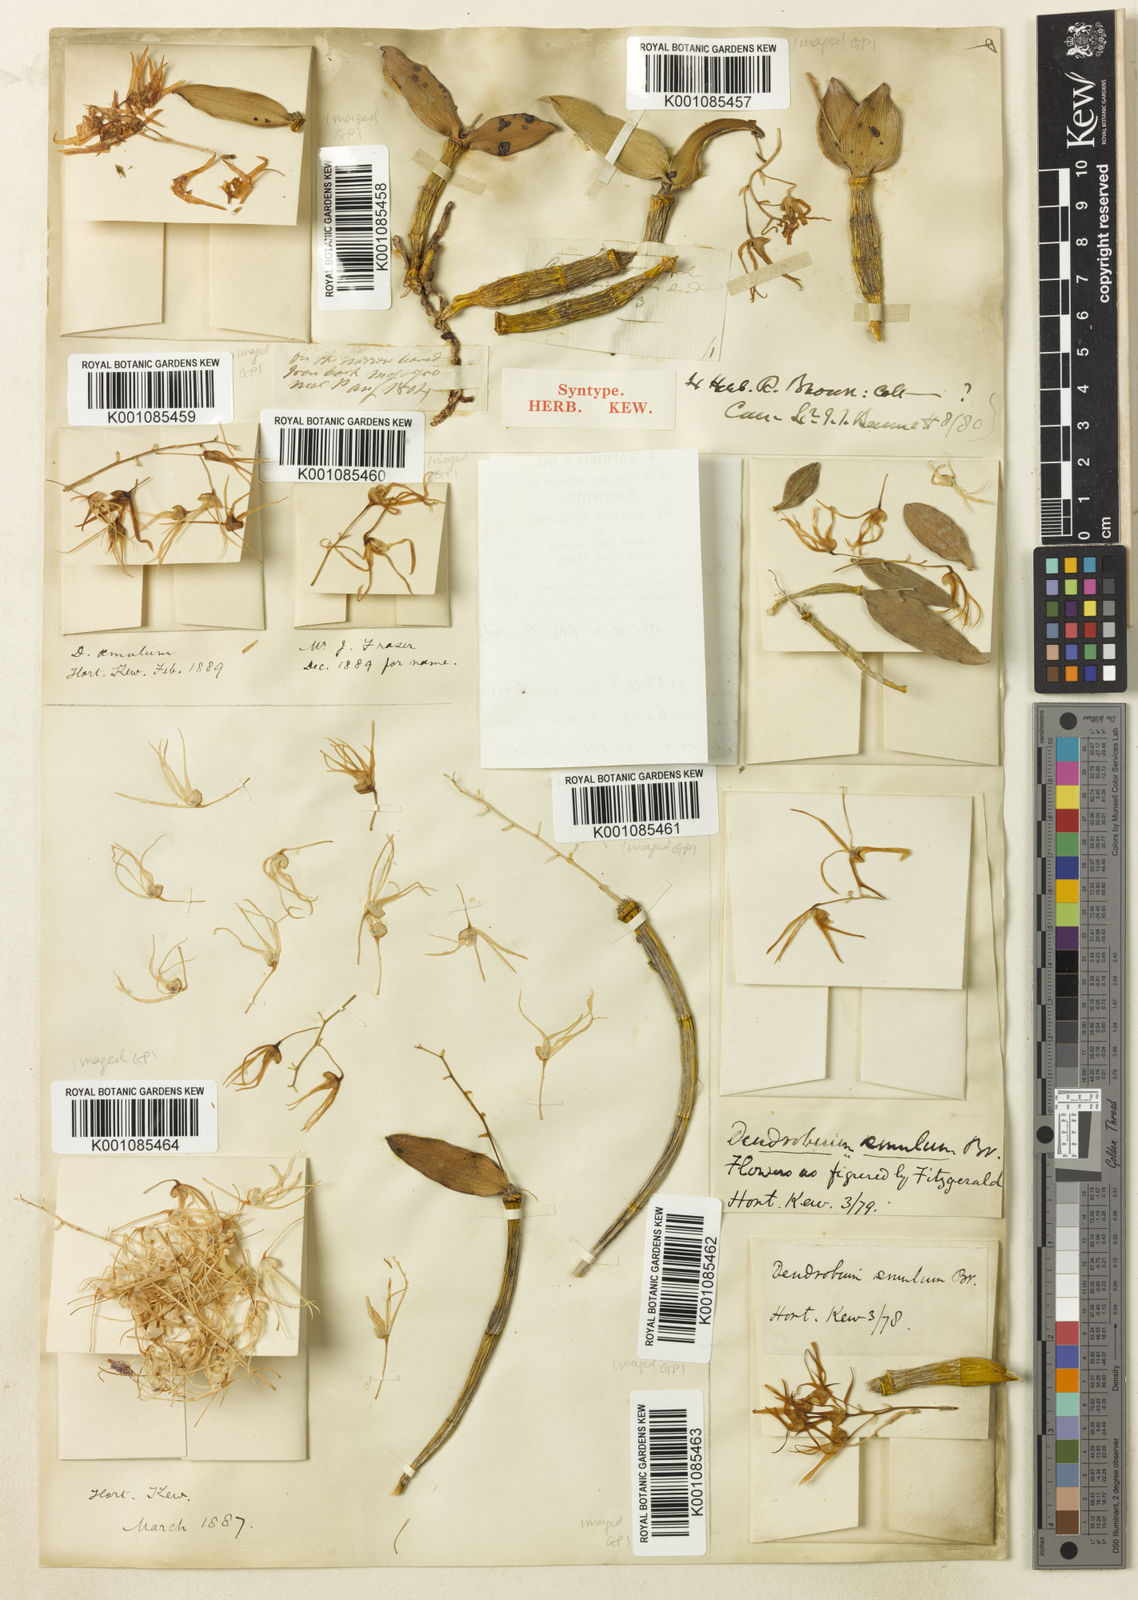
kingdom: Plantae
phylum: Tracheophyta
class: Liliopsida
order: Asparagales
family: Orchidaceae
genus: Dendrobium
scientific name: Dendrobium aemulum
